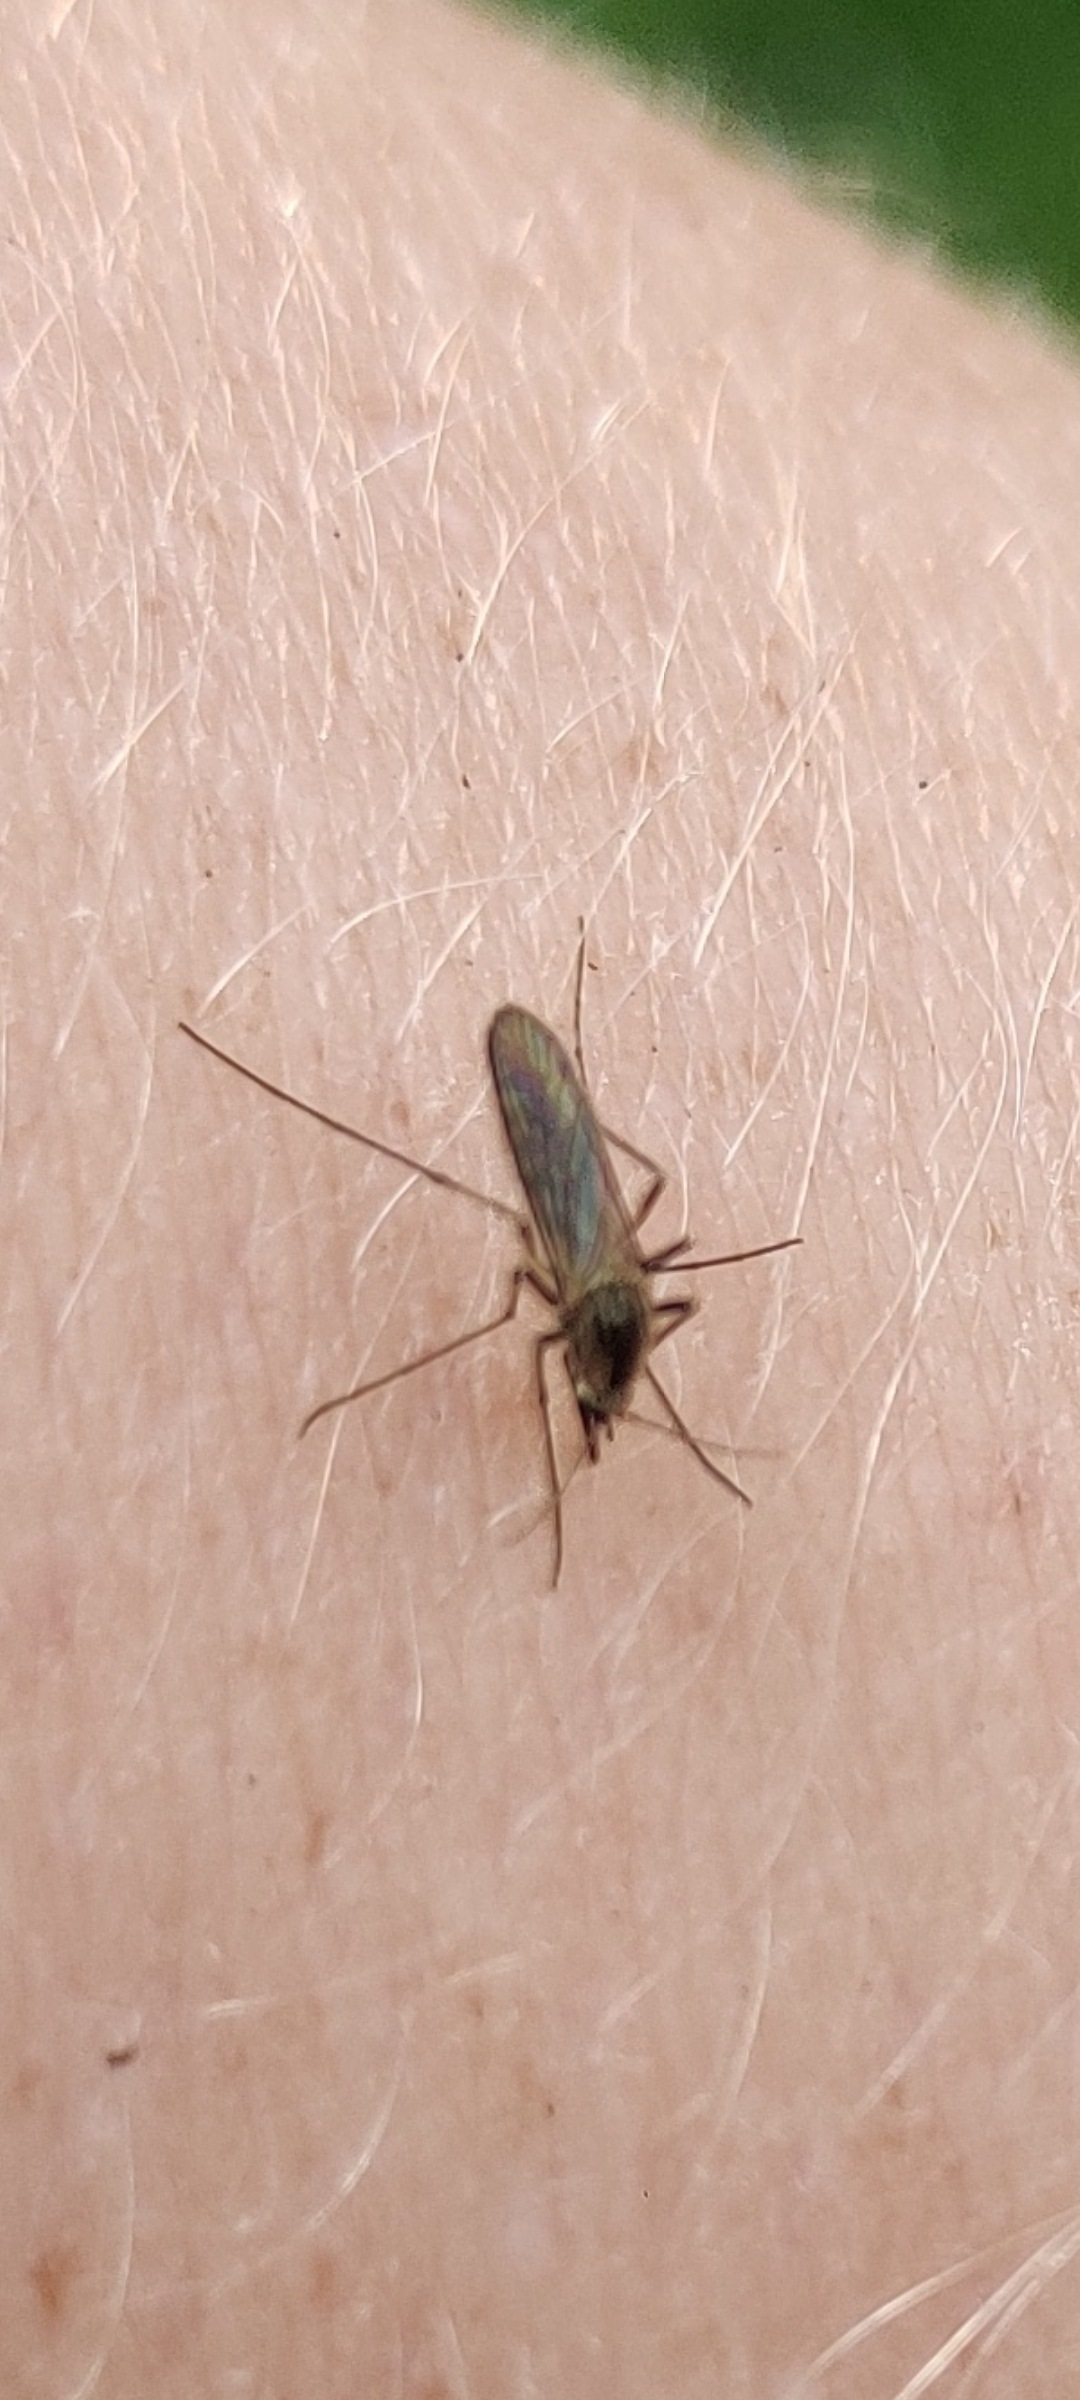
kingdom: Animalia
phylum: Arthropoda
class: Insecta
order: Diptera
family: Culicidae
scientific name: Culicidae
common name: Stikmyg
